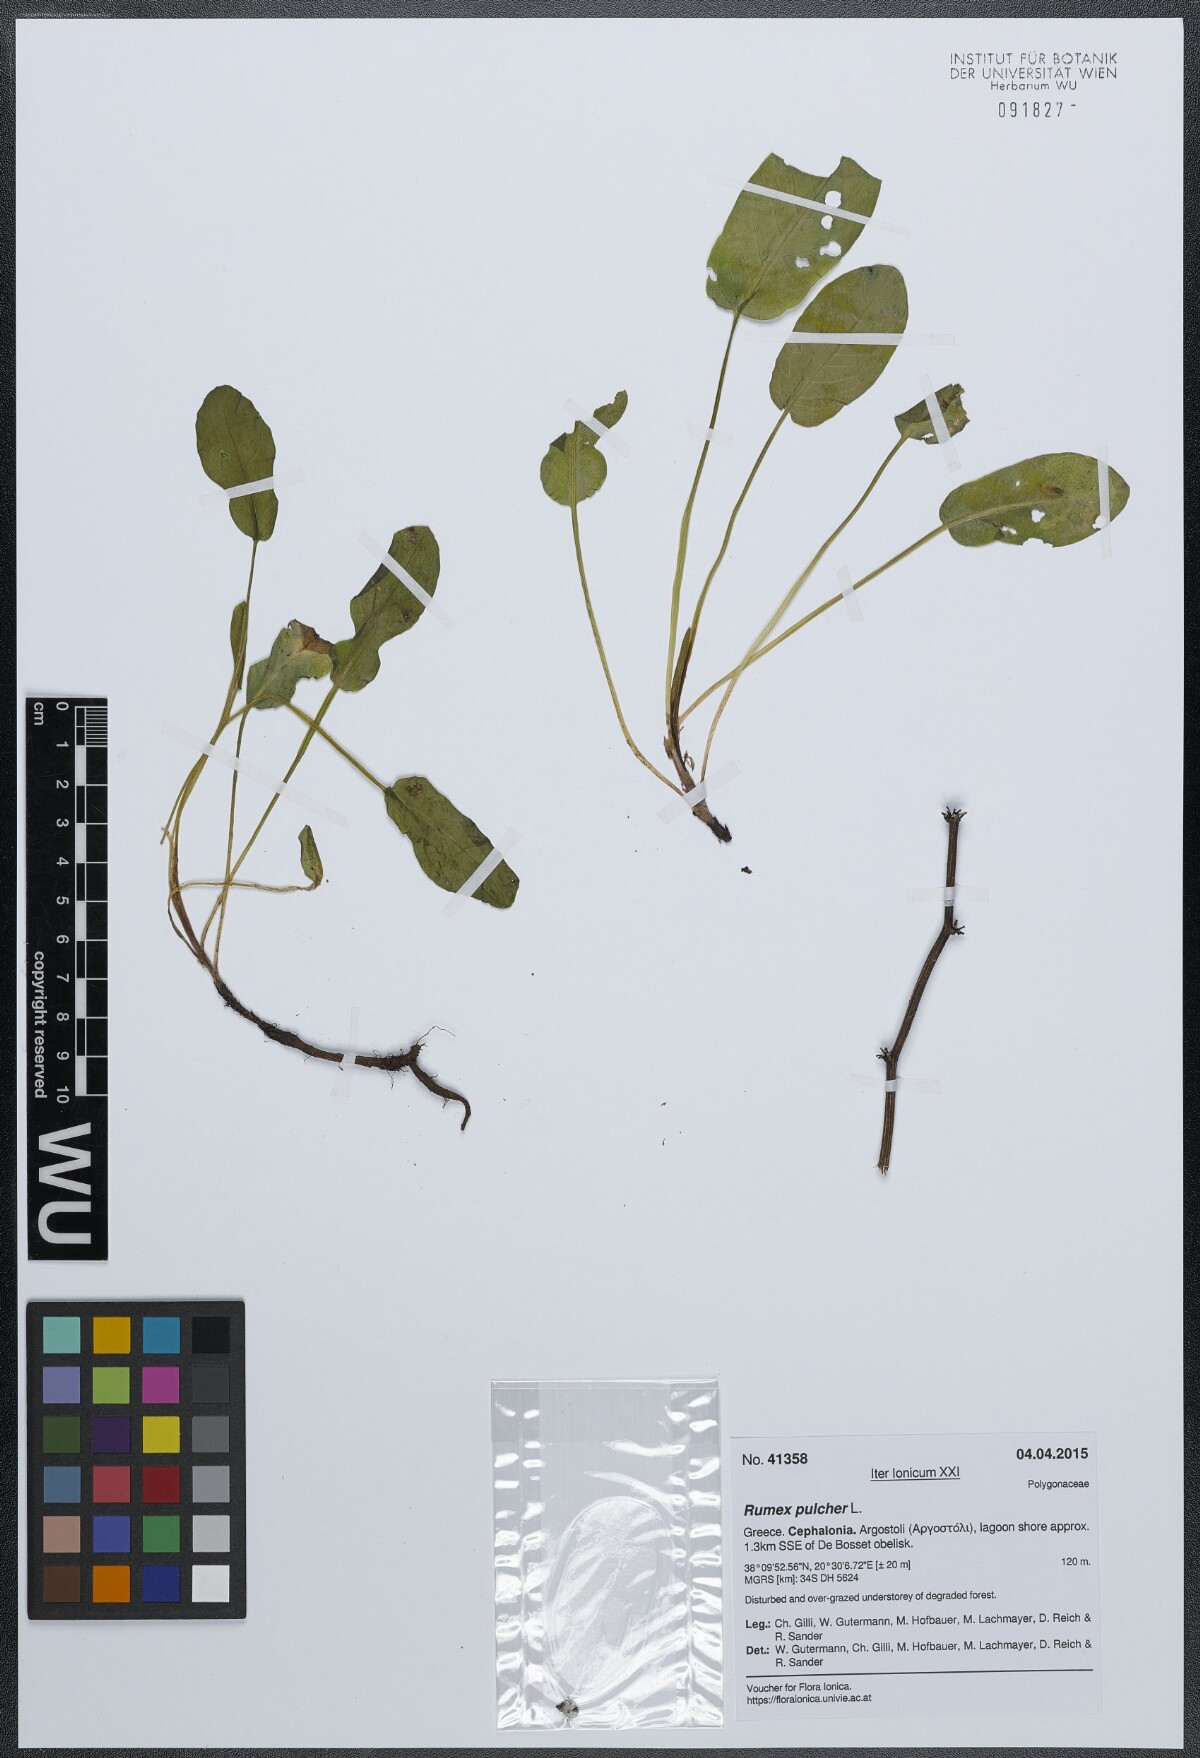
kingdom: Plantae
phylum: Tracheophyta
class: Magnoliopsida
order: Caryophyllales
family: Polygonaceae
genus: Rumex
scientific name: Rumex pulcher
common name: Fiddle dock
